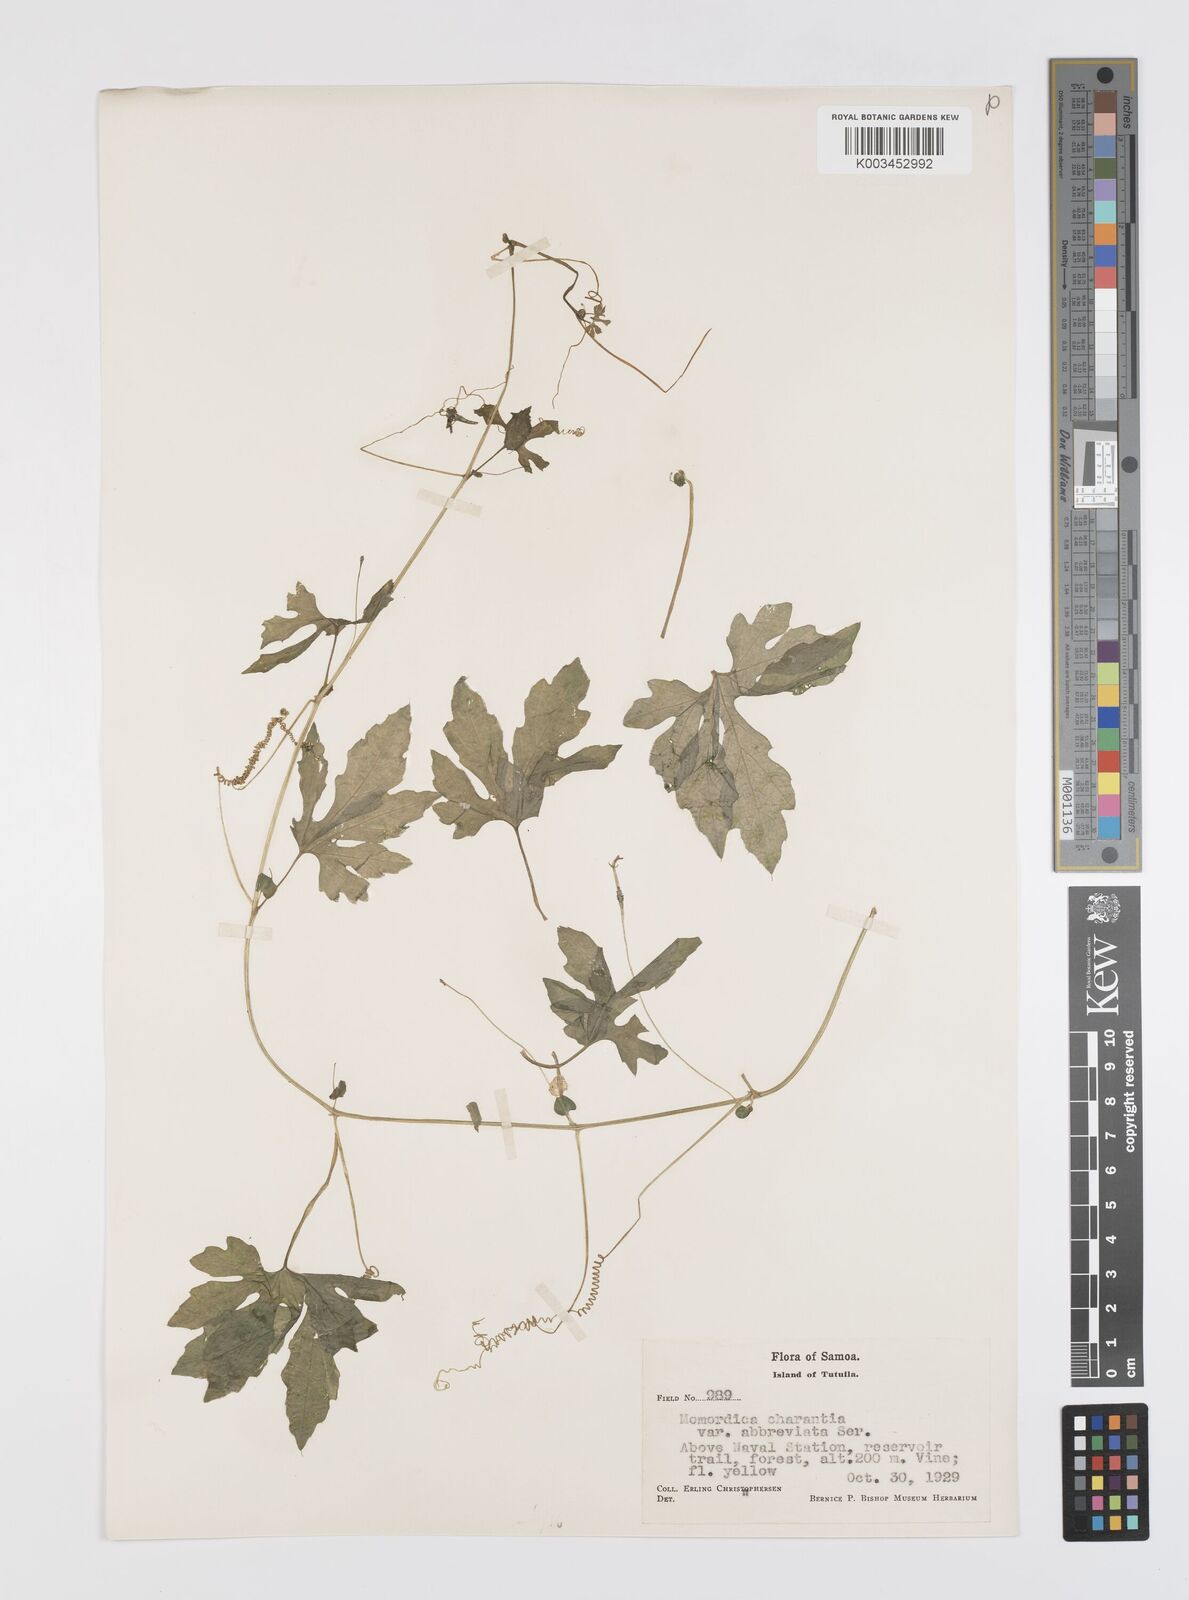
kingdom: Plantae
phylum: Tracheophyta
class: Magnoliopsida
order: Cucurbitales
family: Cucurbitaceae
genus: Momordica
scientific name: Momordica charantia
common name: Balsampear
